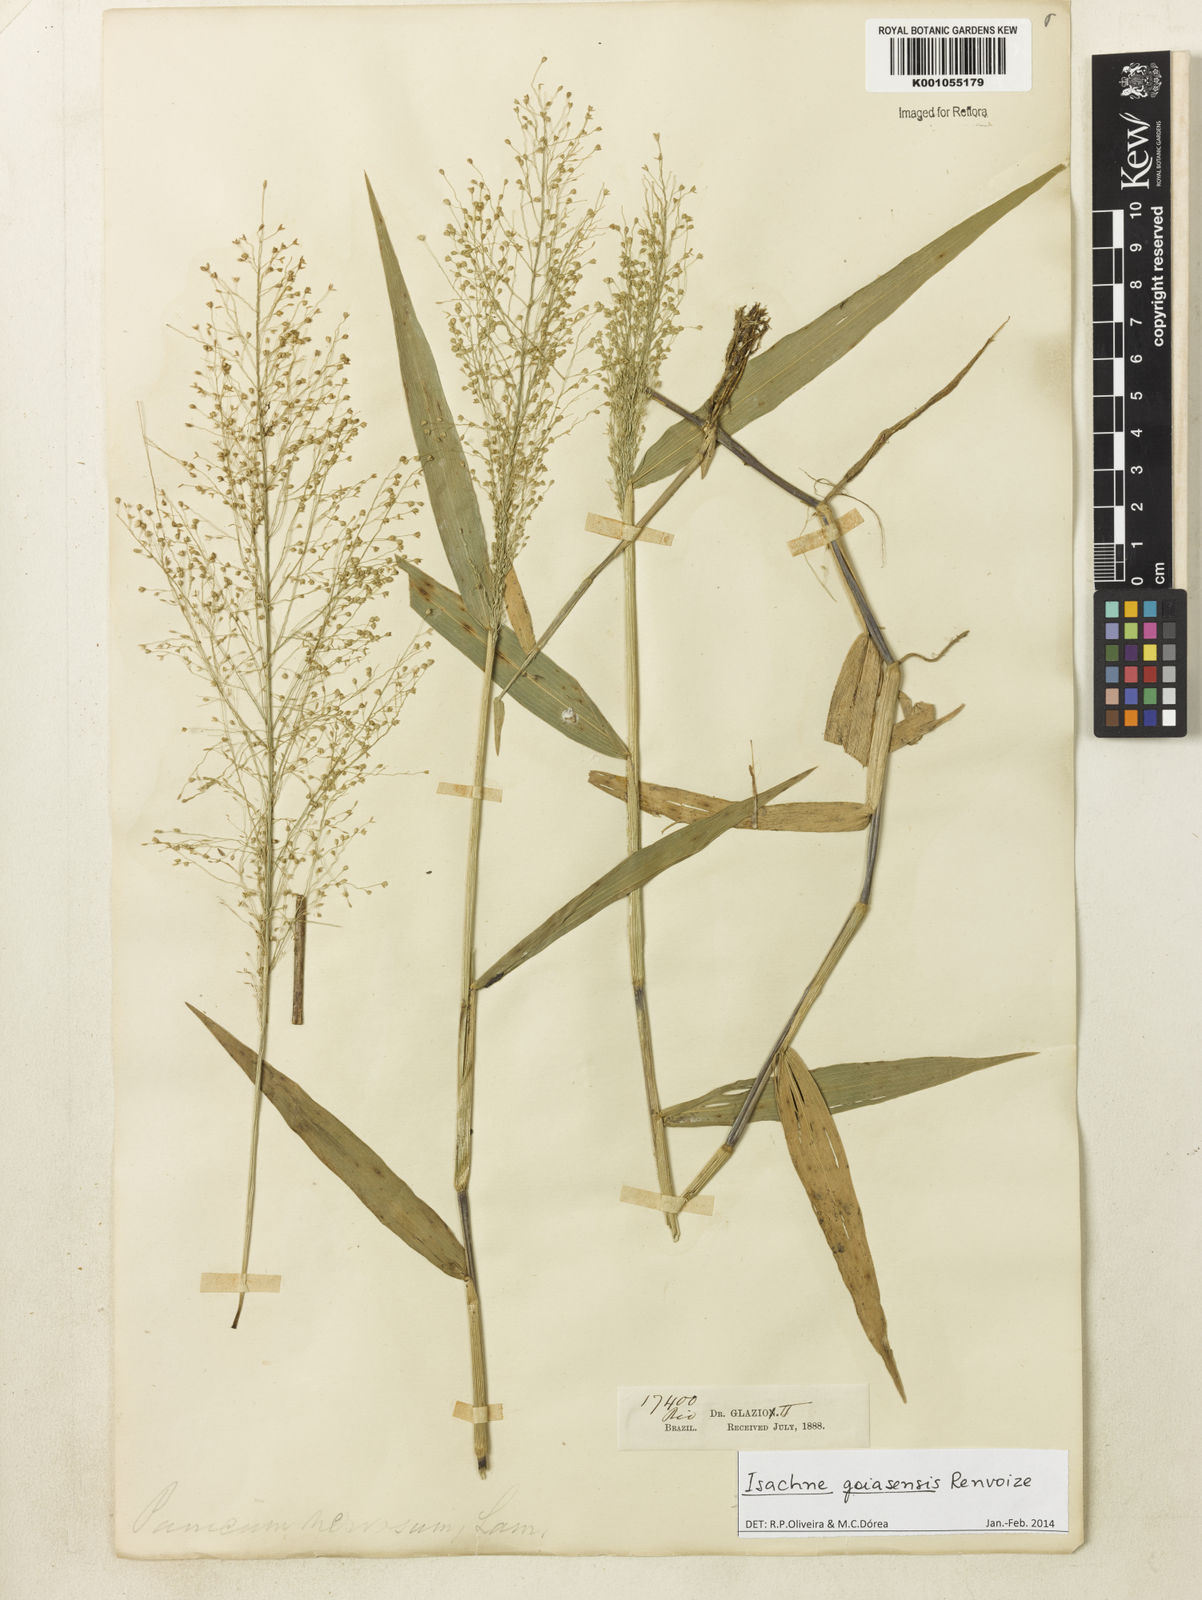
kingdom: Plantae
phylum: Tracheophyta
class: Liliopsida
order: Poales
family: Poaceae
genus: Isachne
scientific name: Isachne goiasensis
